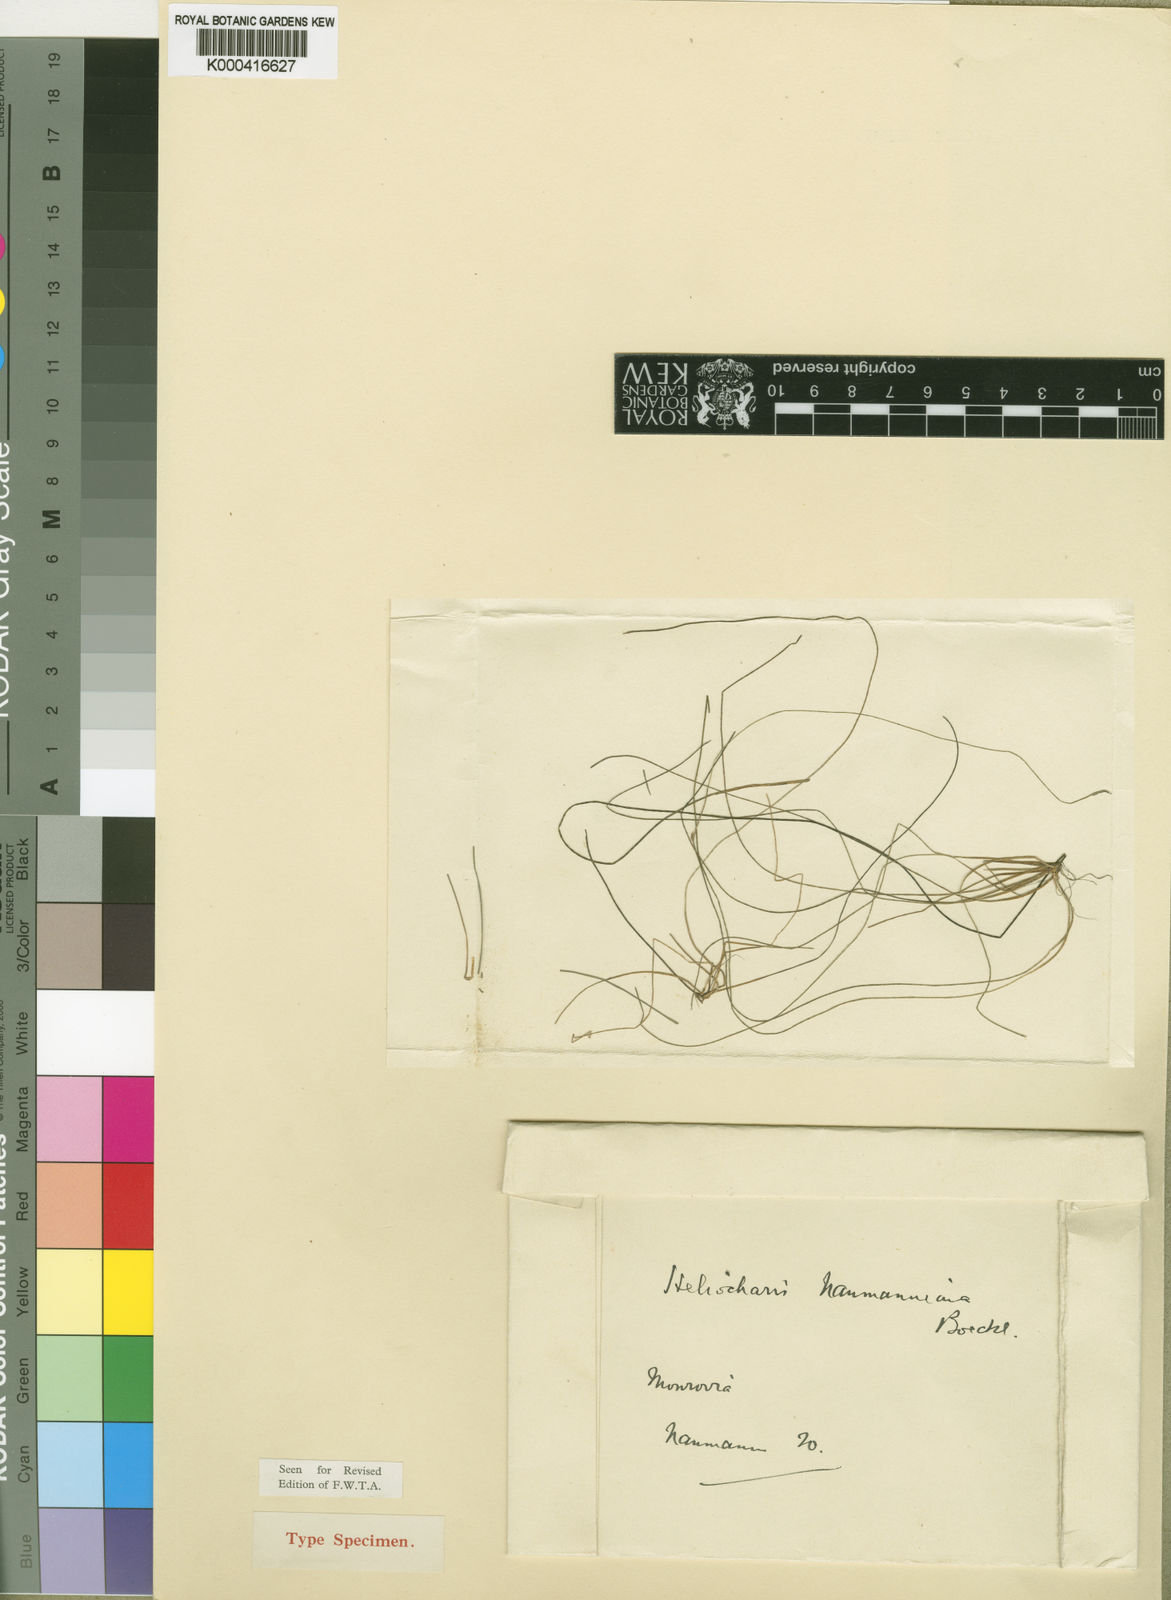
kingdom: Plantae
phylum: Tracheophyta
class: Liliopsida
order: Poales
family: Cyperaceae
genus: Eleocharis
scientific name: Eleocharis naumanniana
